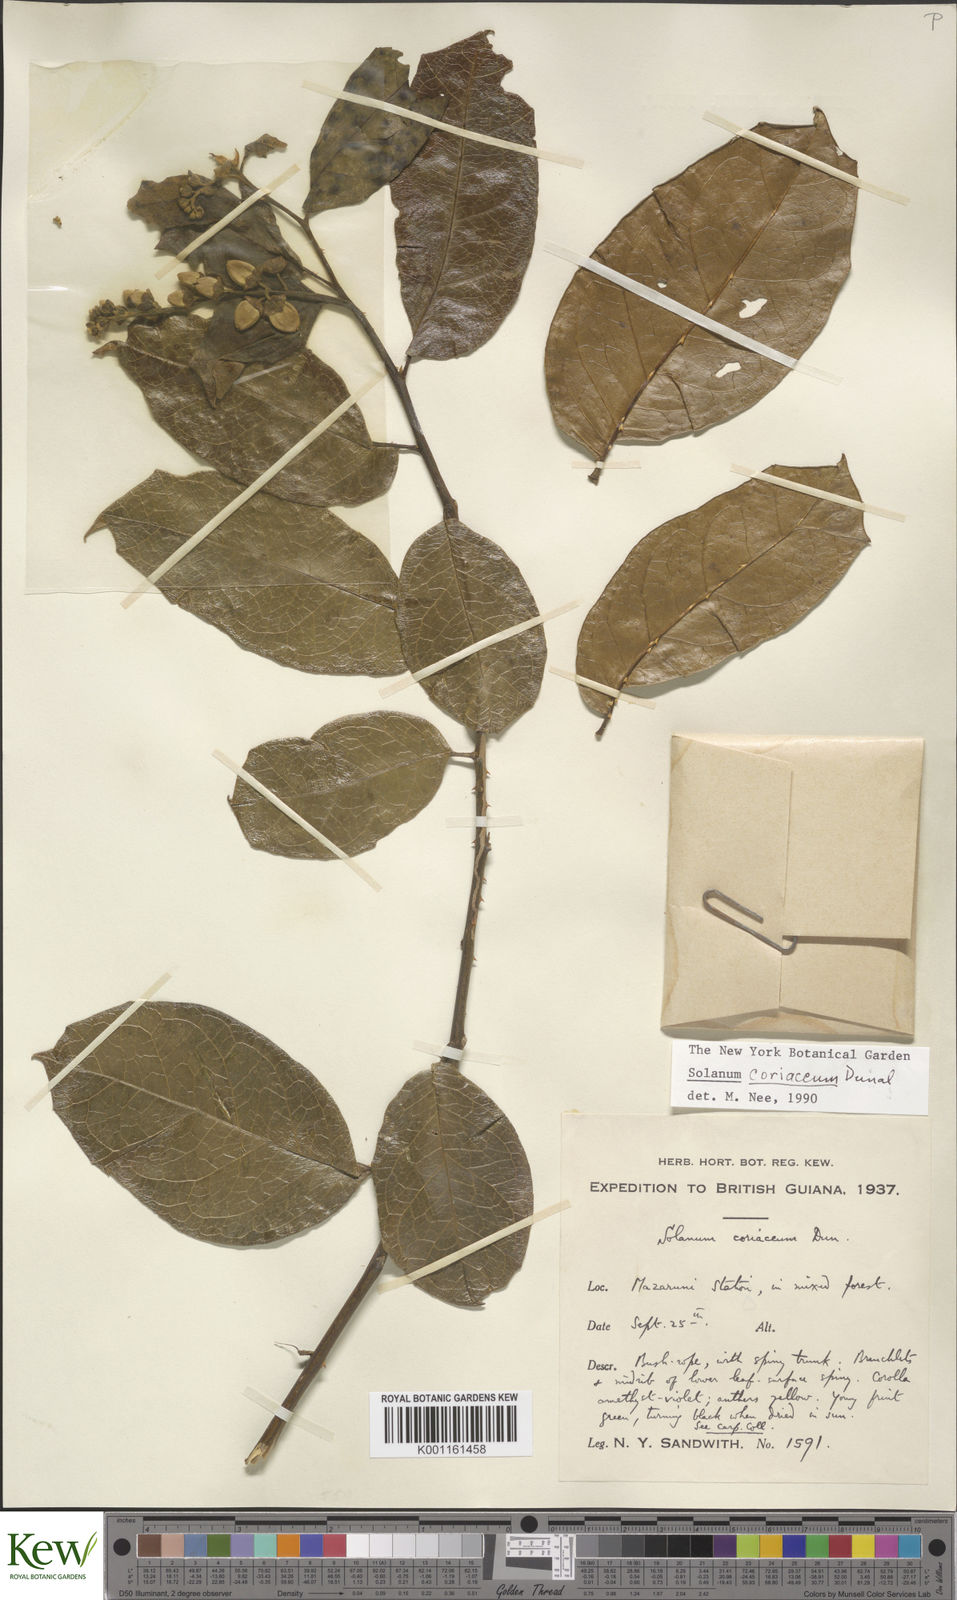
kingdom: Plantae
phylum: Tracheophyta
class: Magnoliopsida
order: Solanales
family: Solanaceae
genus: Solanum
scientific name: Solanum coriaceum
